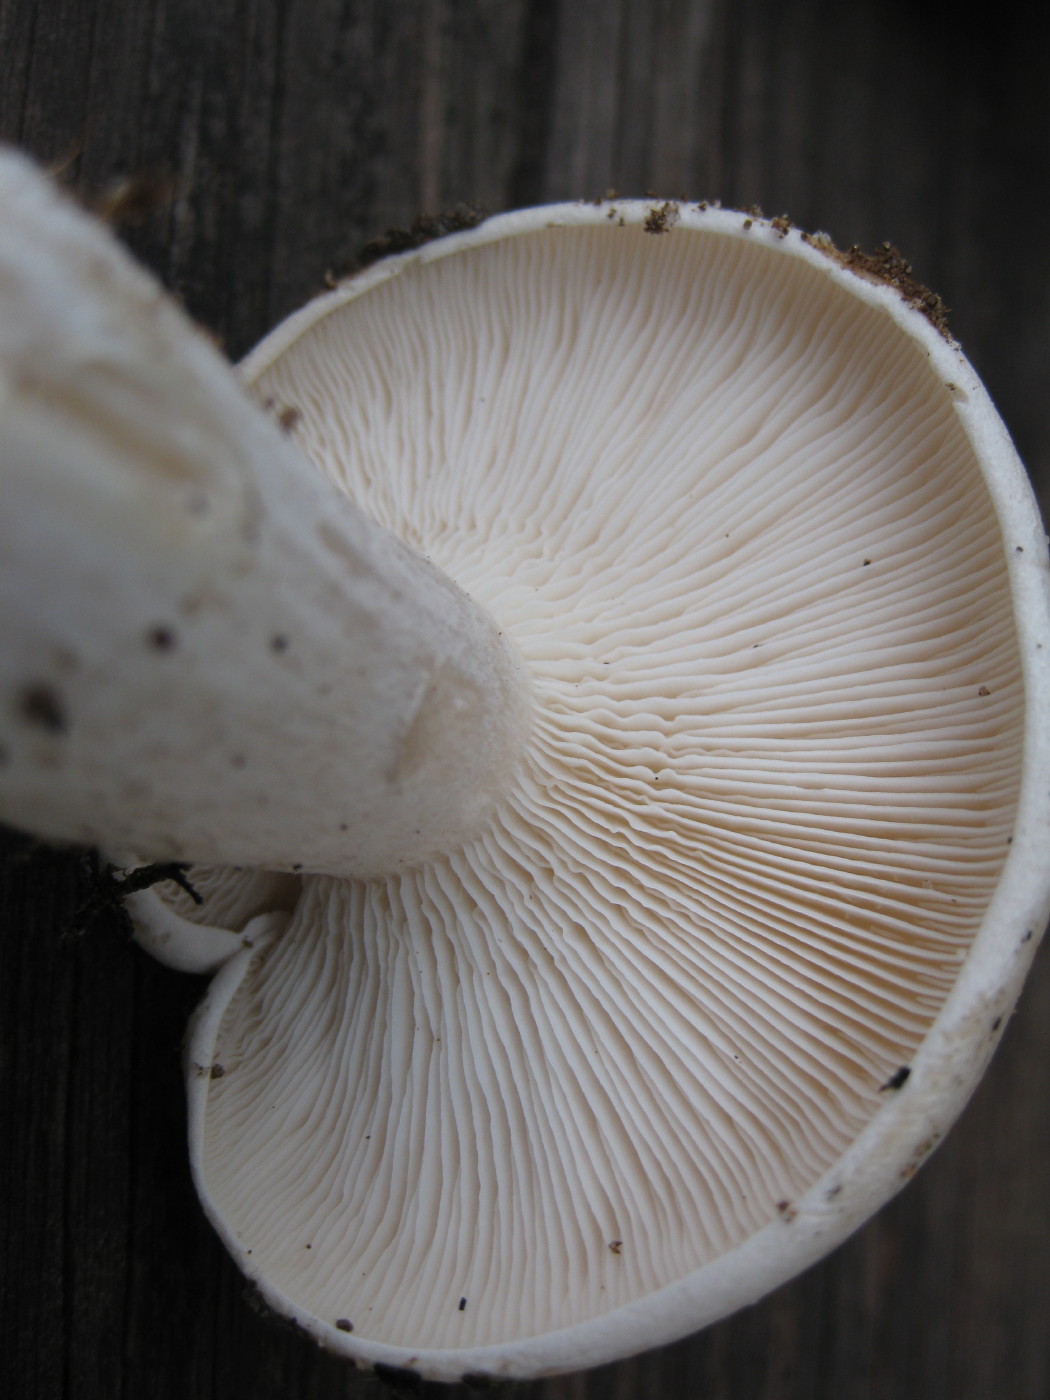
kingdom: Fungi
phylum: Basidiomycota
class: Agaricomycetes
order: Agaricales
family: Tricholomataceae
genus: Clitocybe
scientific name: Clitocybe nebularis
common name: tåge-tragthat
